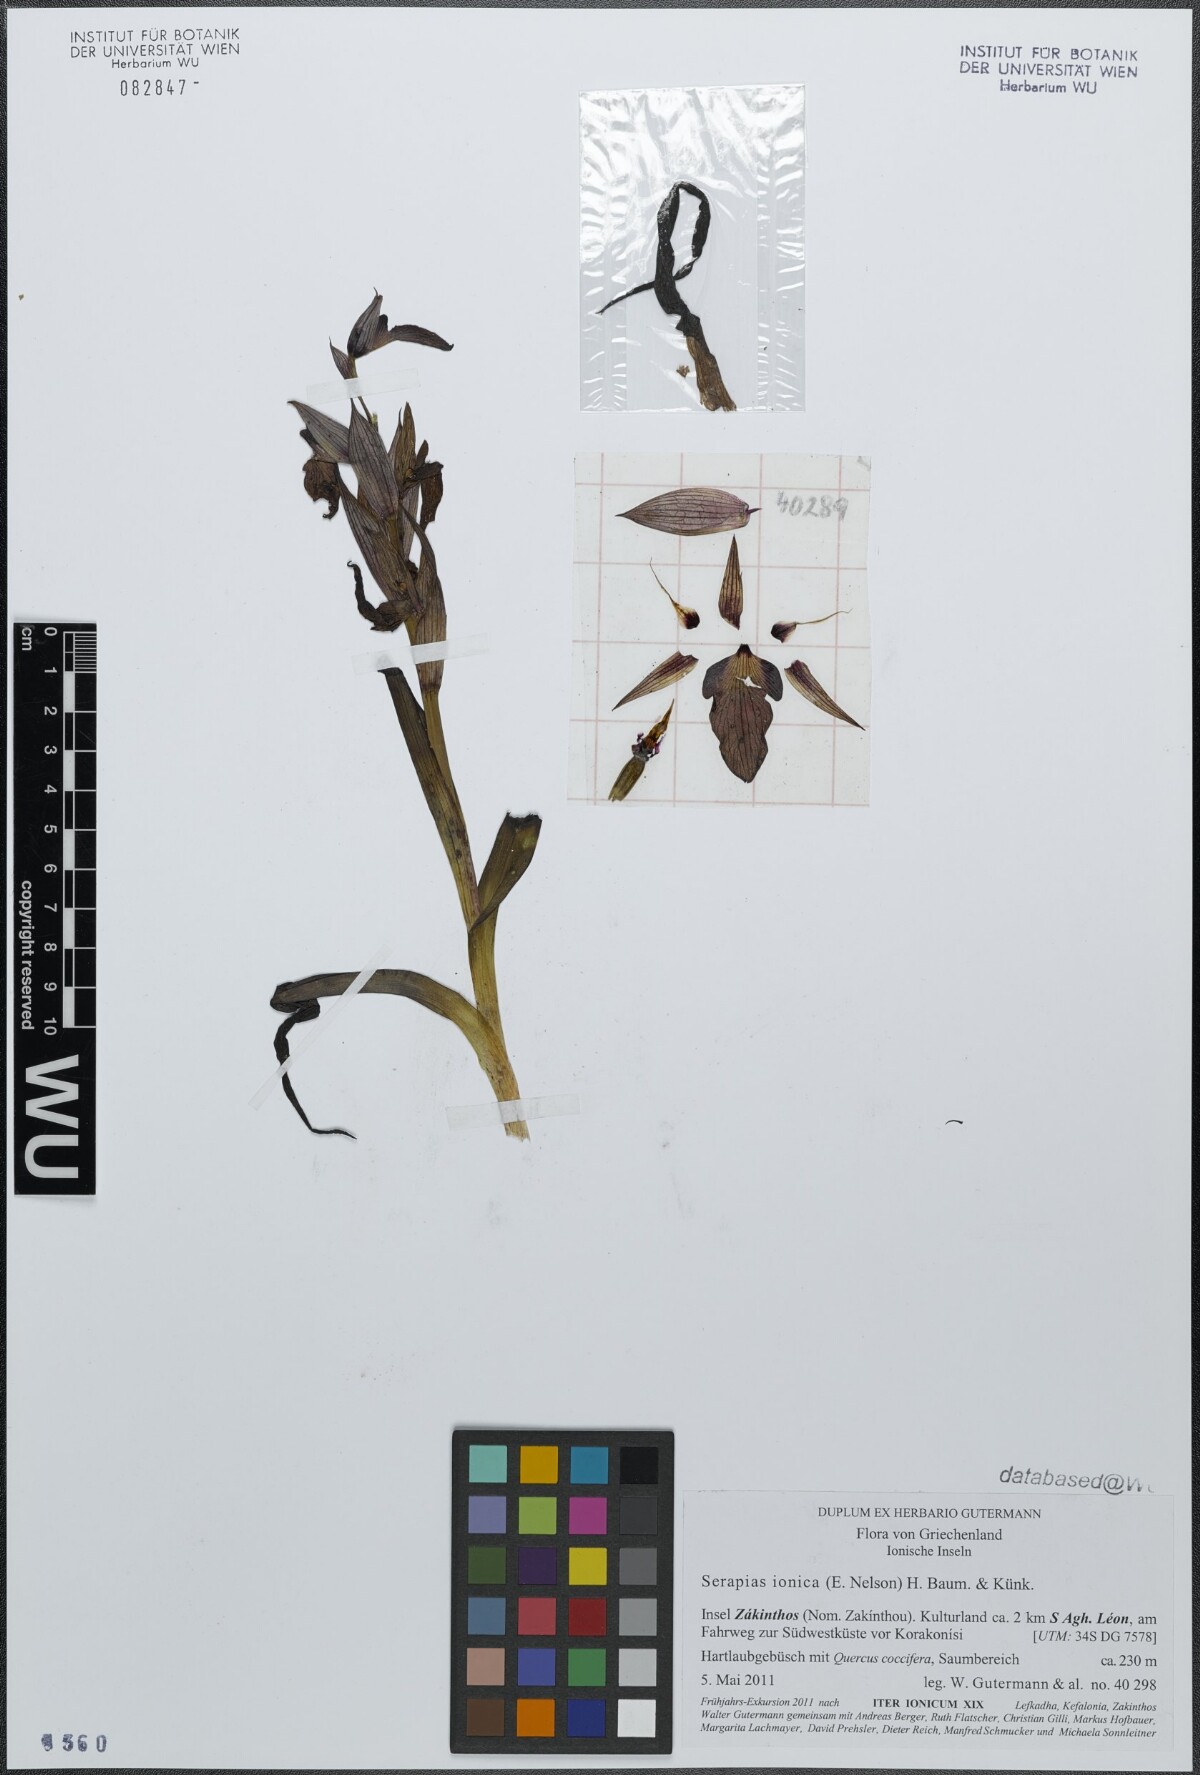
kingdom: Plantae
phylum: Tracheophyta
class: Liliopsida
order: Asparagales
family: Orchidaceae
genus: Serapias
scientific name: Serapias orientalis
